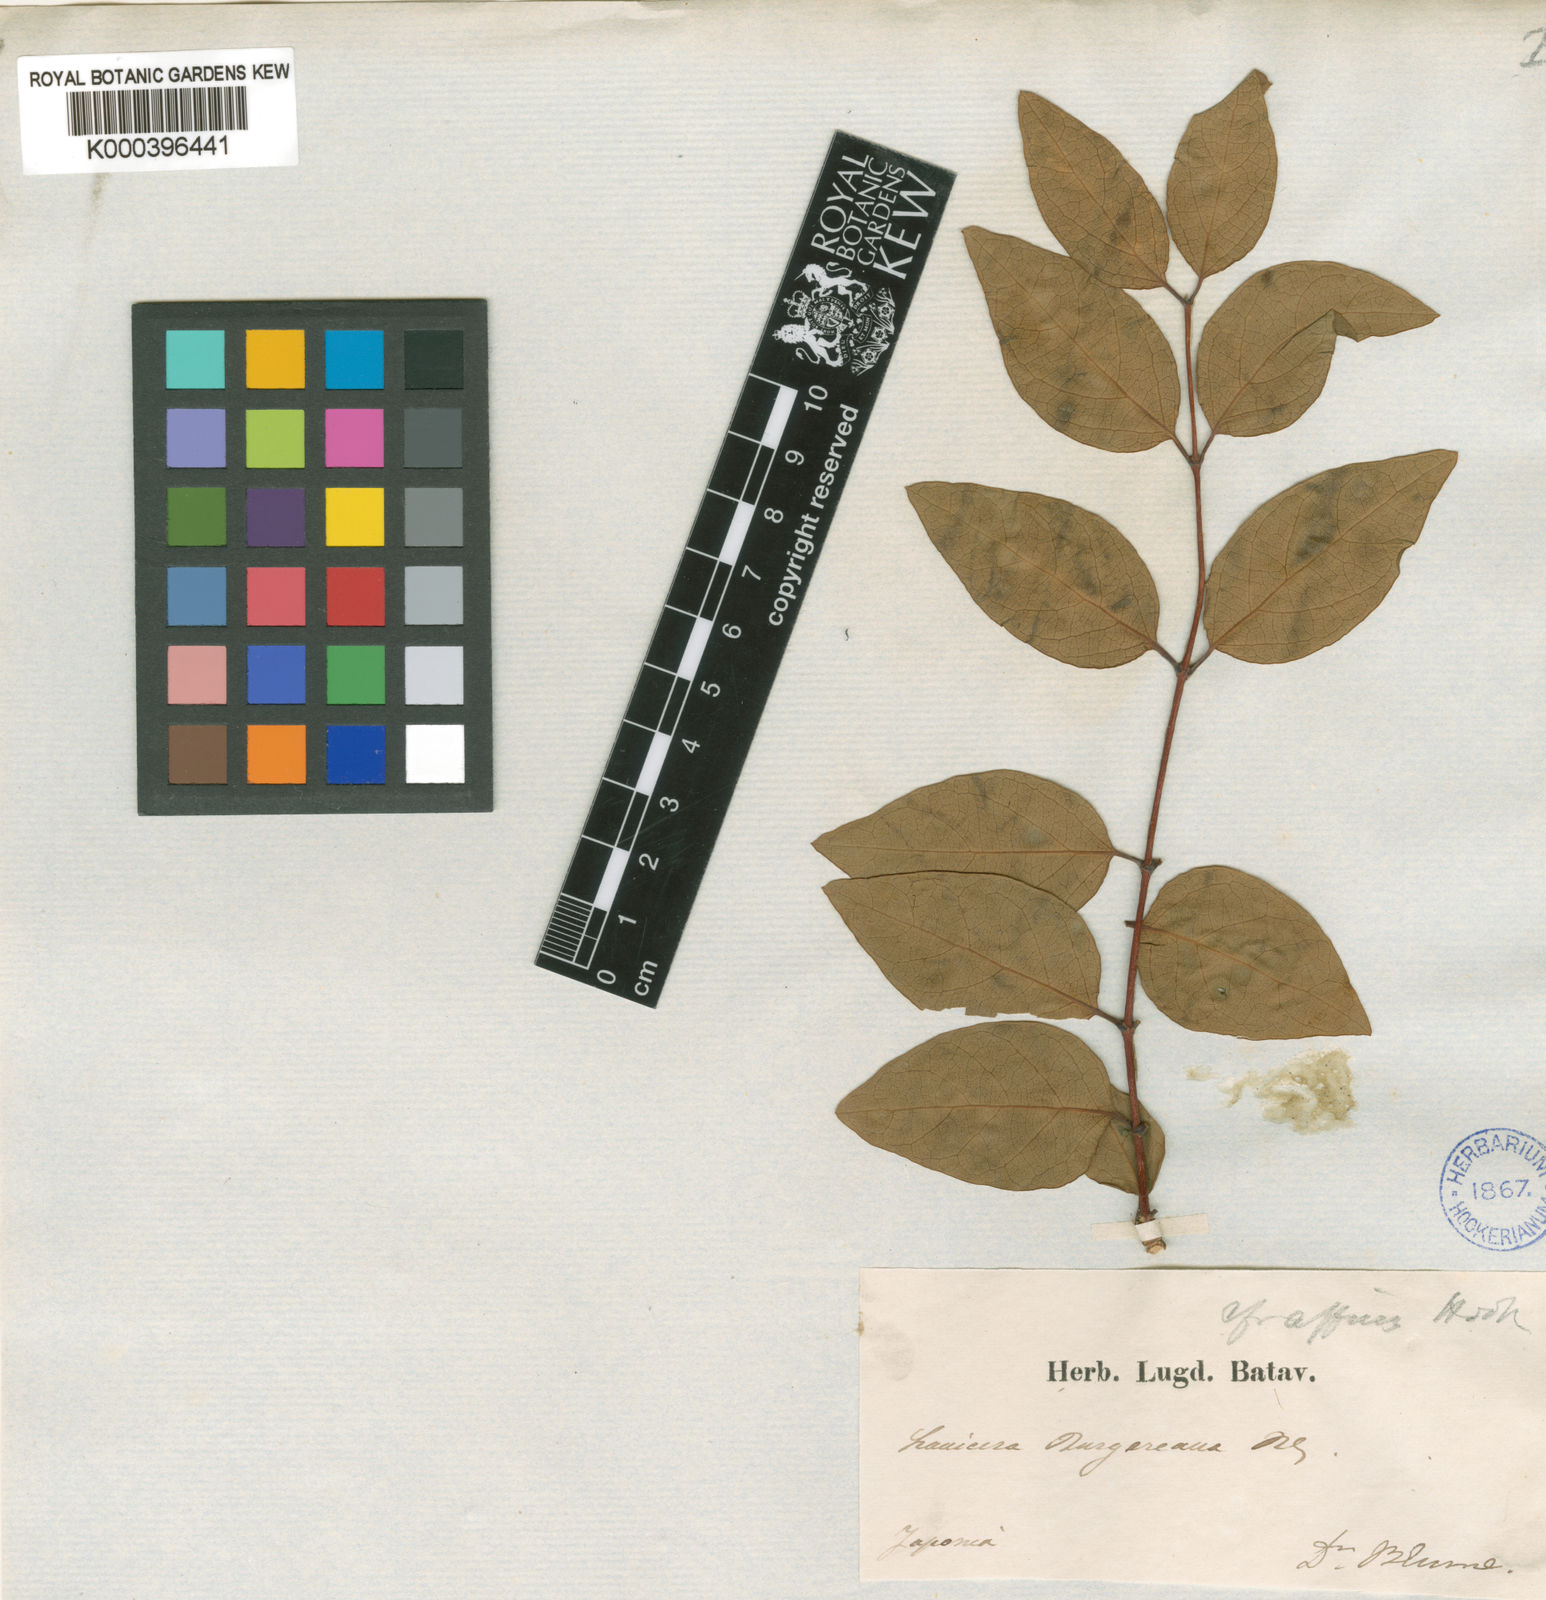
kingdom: Plantae
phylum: Tracheophyta
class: Magnoliopsida
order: Dipsacales
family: Caprifoliaceae
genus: Lonicera
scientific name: Lonicera affinis
